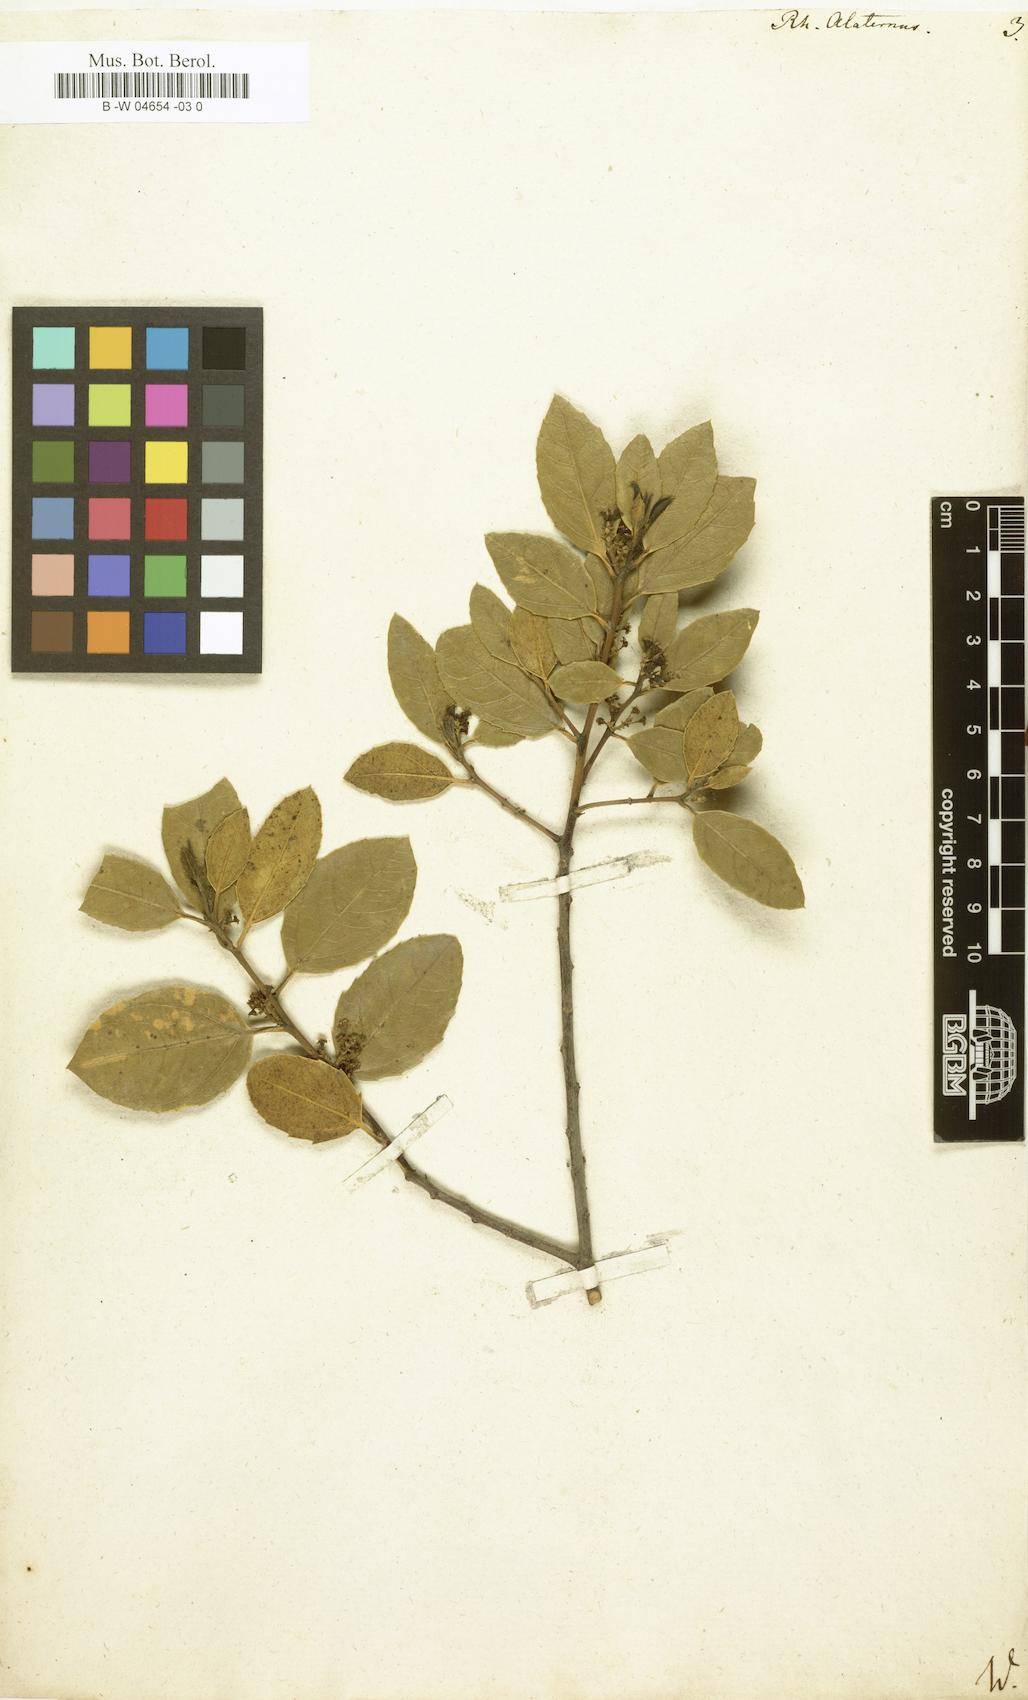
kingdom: Plantae
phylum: Tracheophyta
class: Magnoliopsida
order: Rosales
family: Rhamnaceae
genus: Rhamnus
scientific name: Rhamnus alaternus
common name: Mediterranean buckthorn
